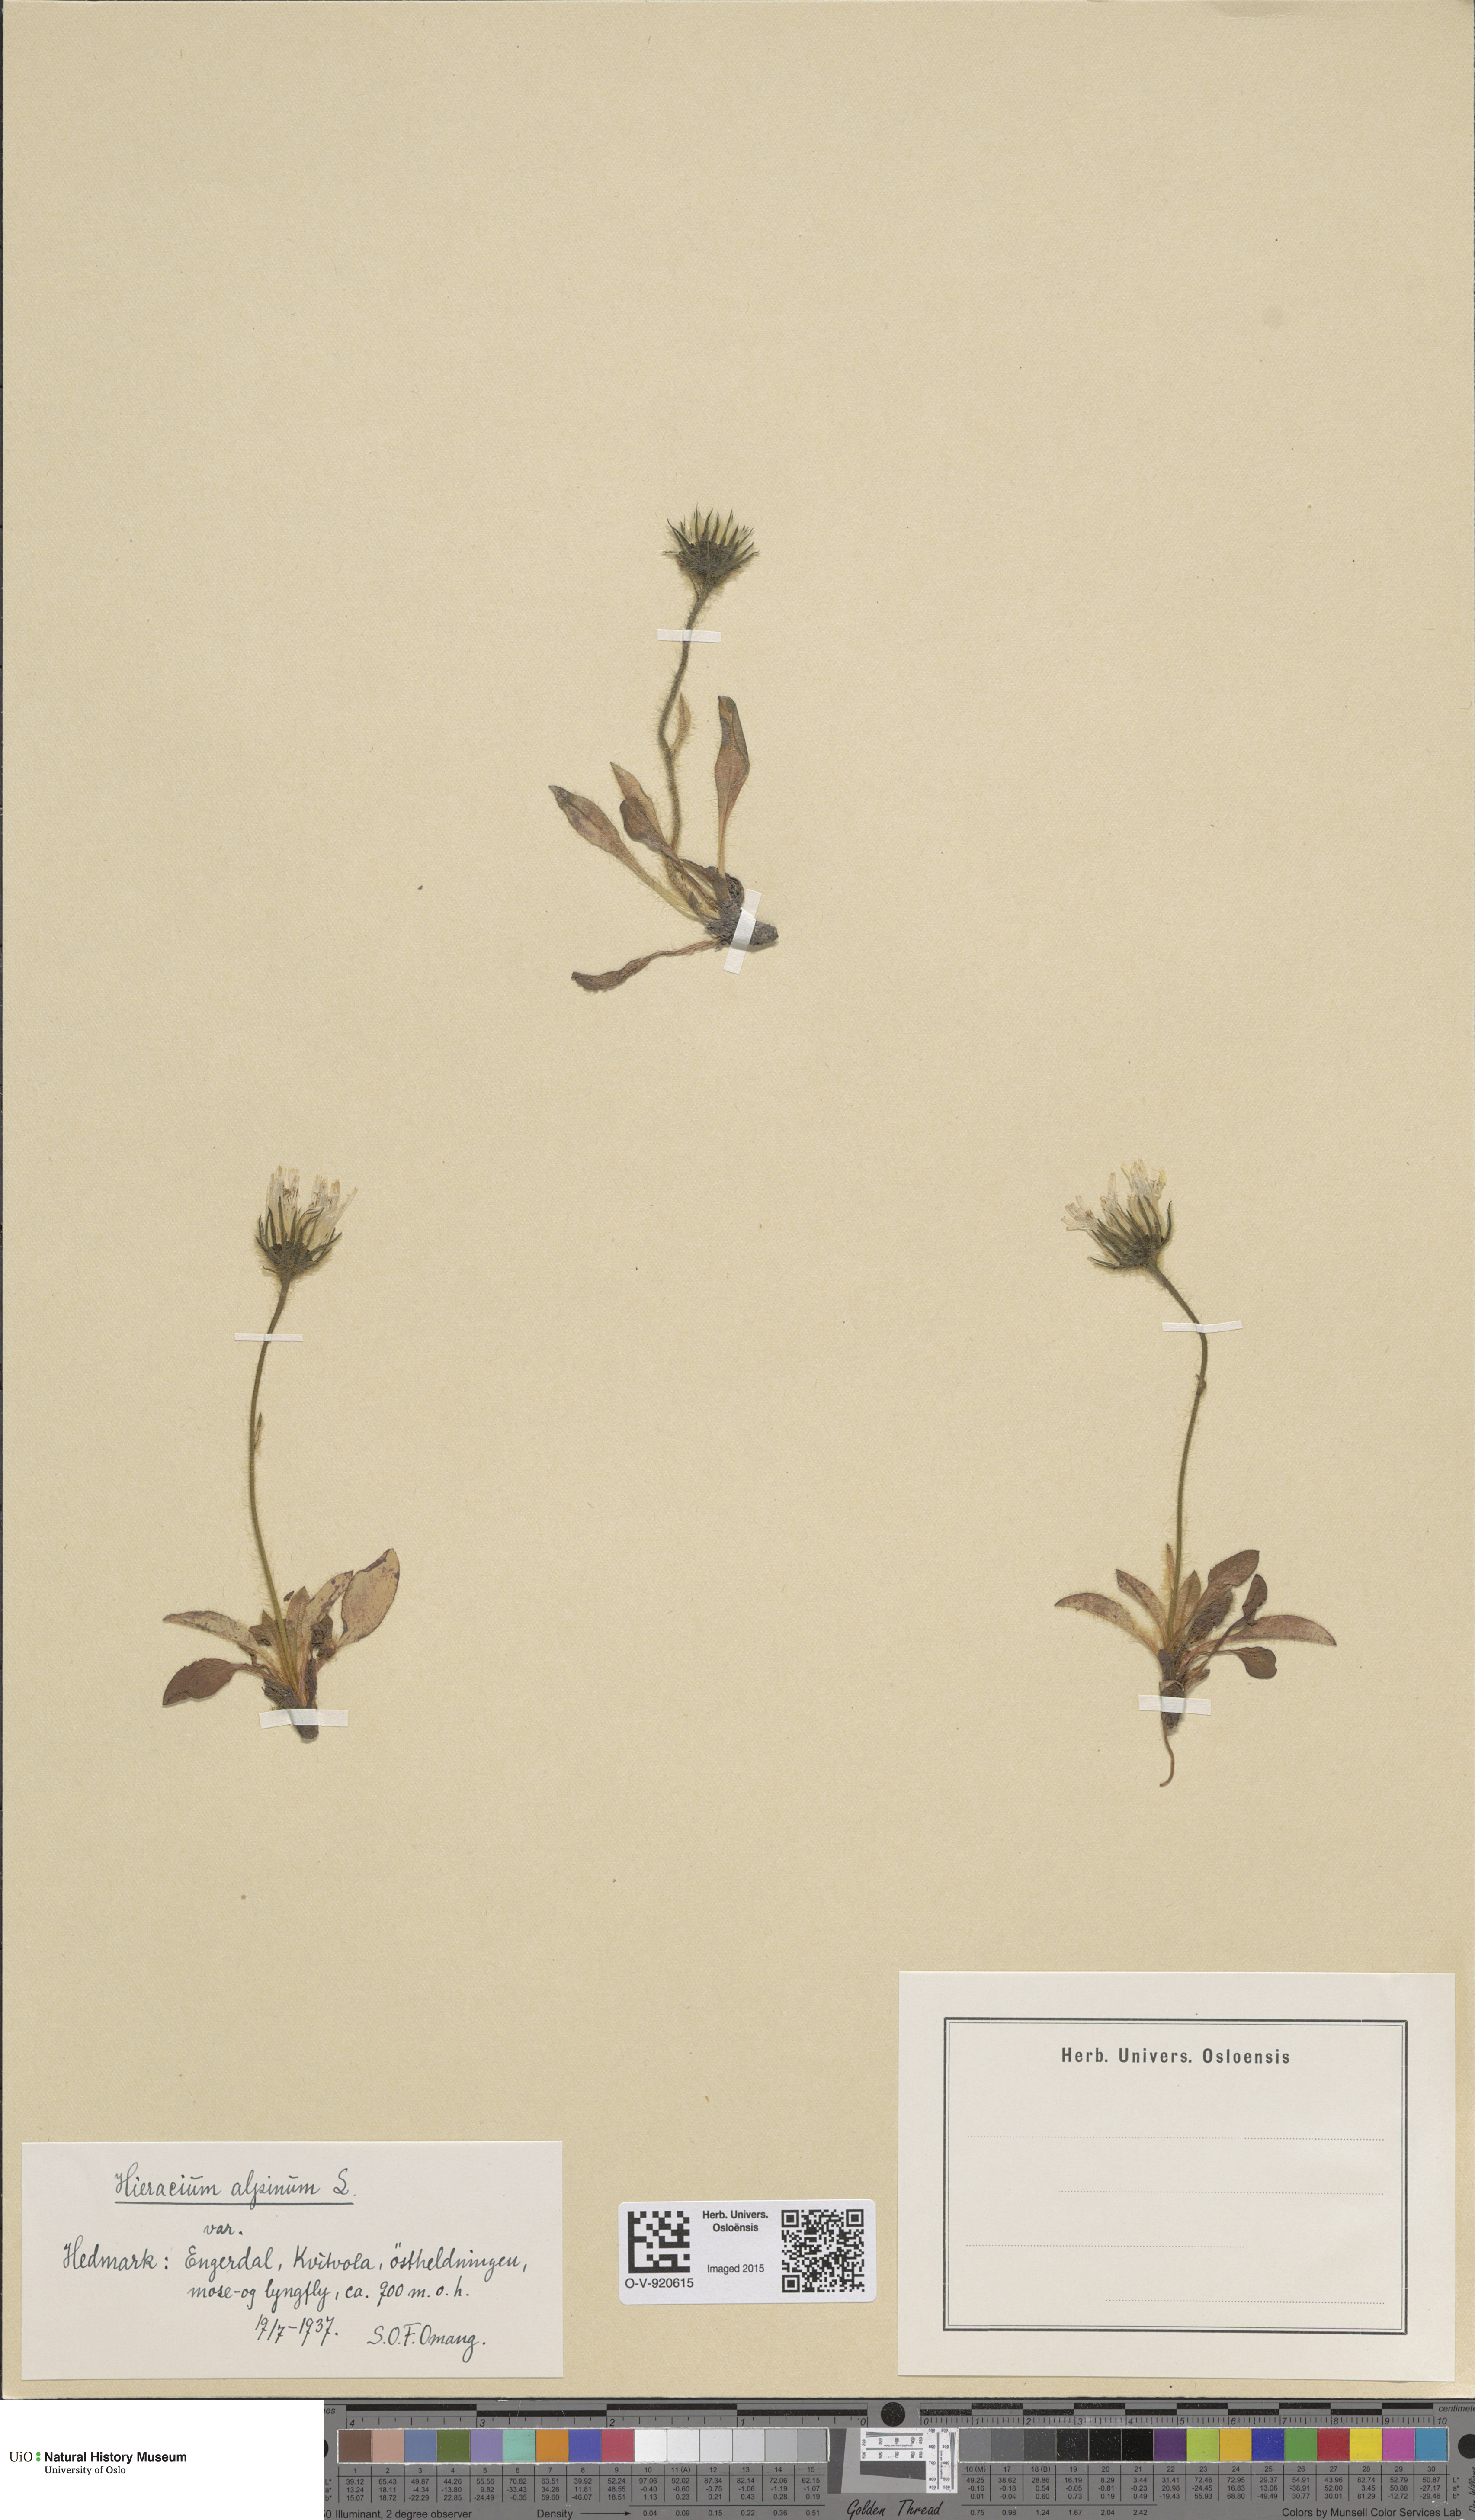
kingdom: Plantae
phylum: Tracheophyta
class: Magnoliopsida
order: Asterales
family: Asteraceae
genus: Hieracium
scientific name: Hieracium alpinum
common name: Alpine hawkweed
